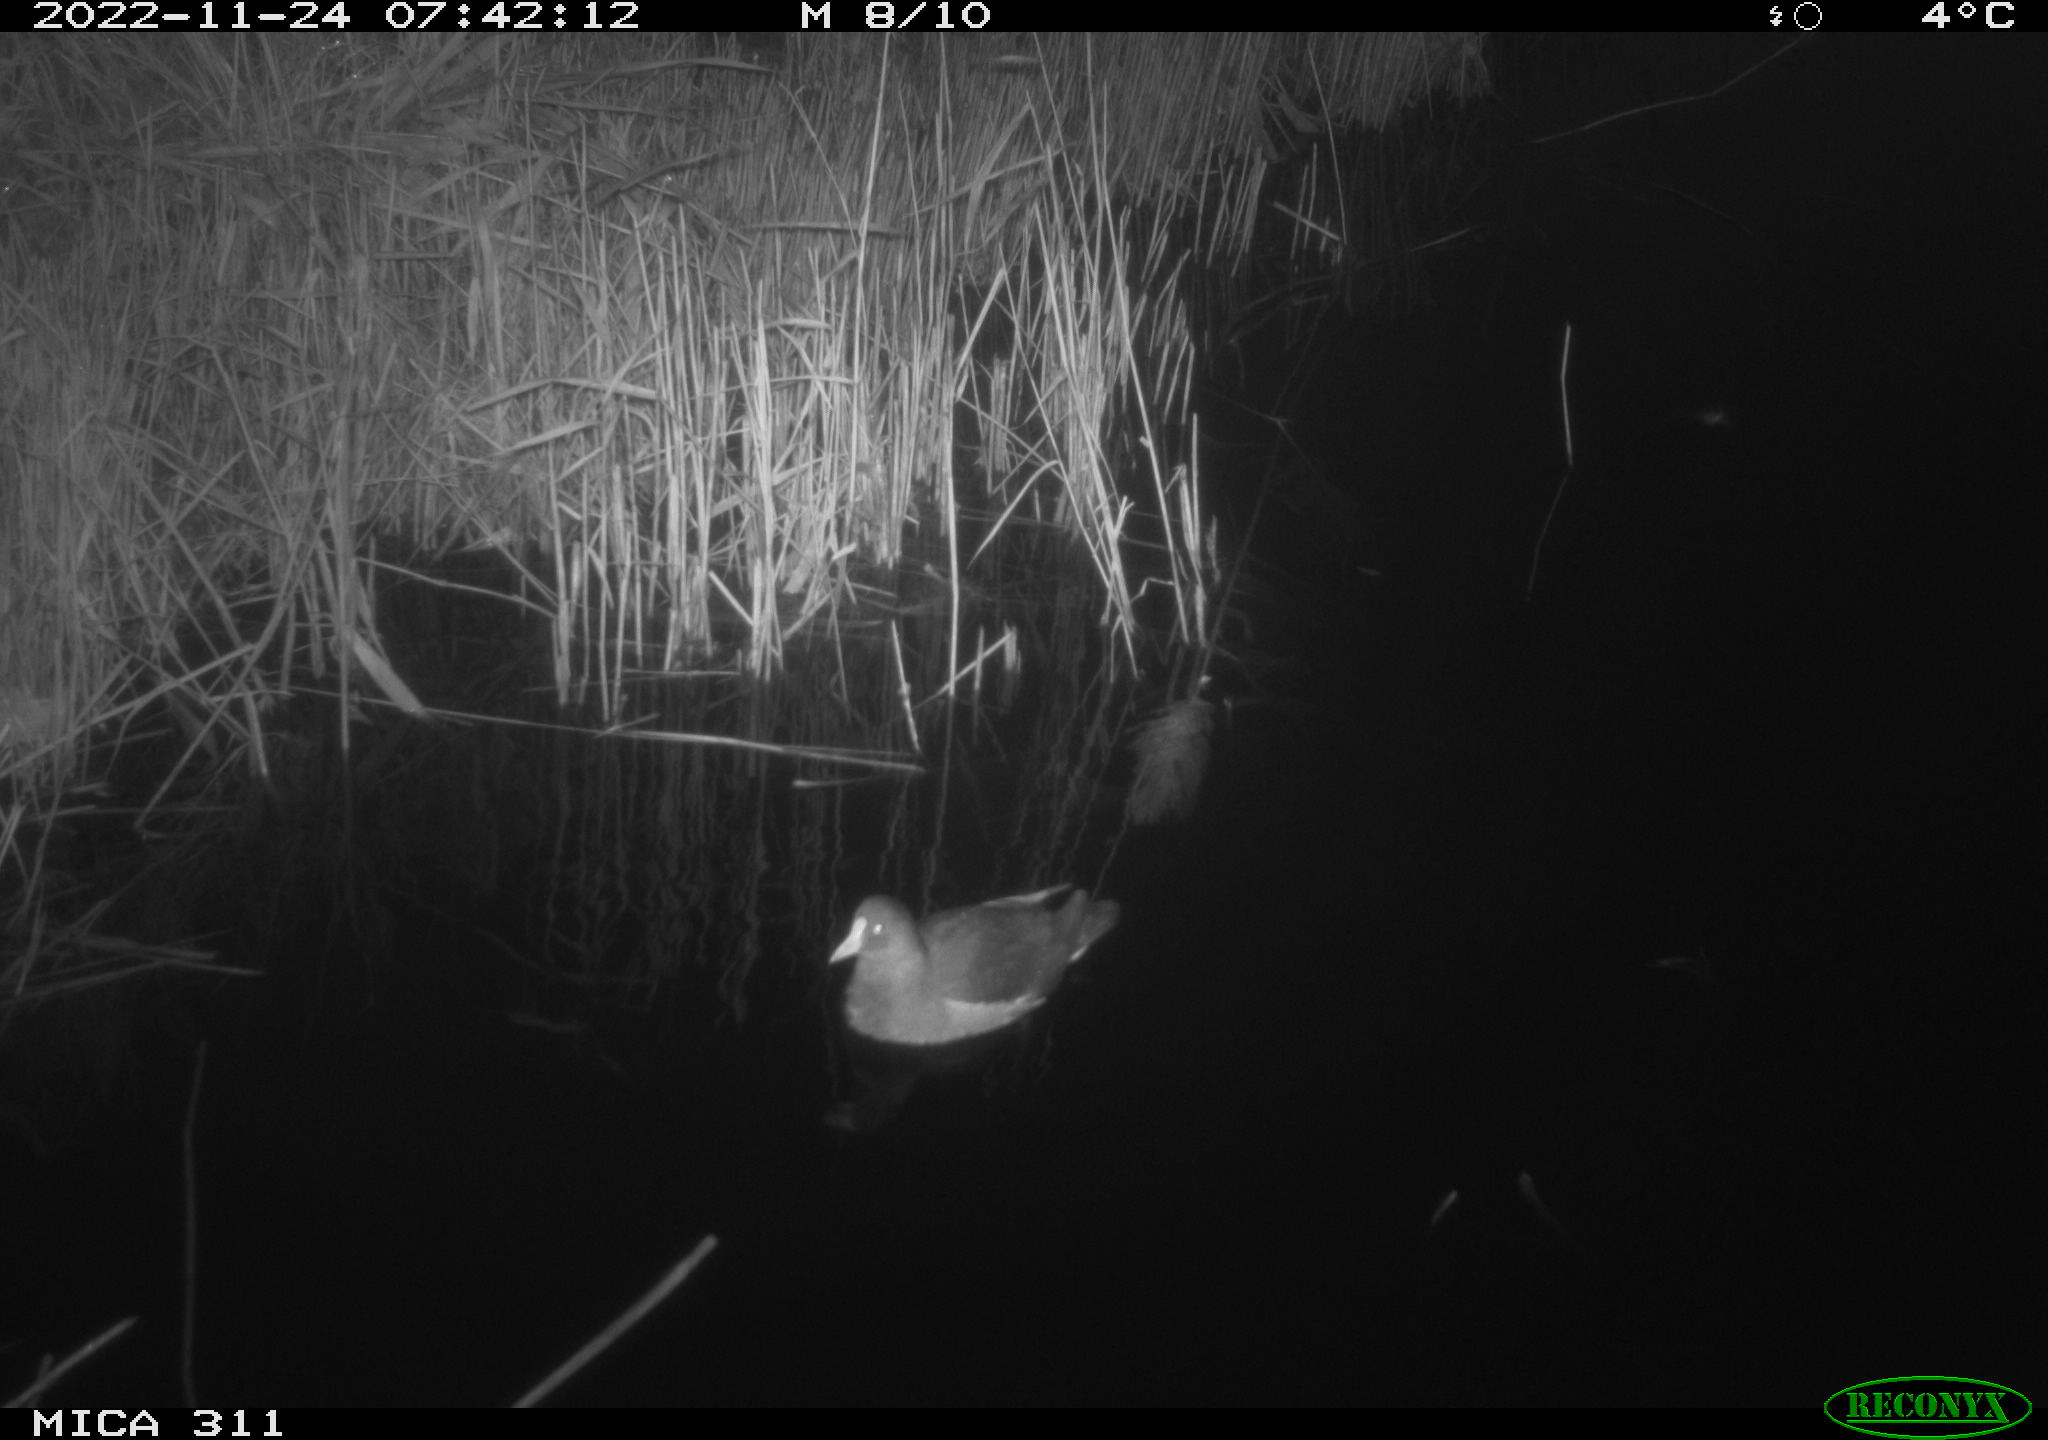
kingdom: Animalia
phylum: Chordata
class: Aves
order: Gruiformes
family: Rallidae
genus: Gallinula
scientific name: Gallinula chloropus
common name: Common moorhen
